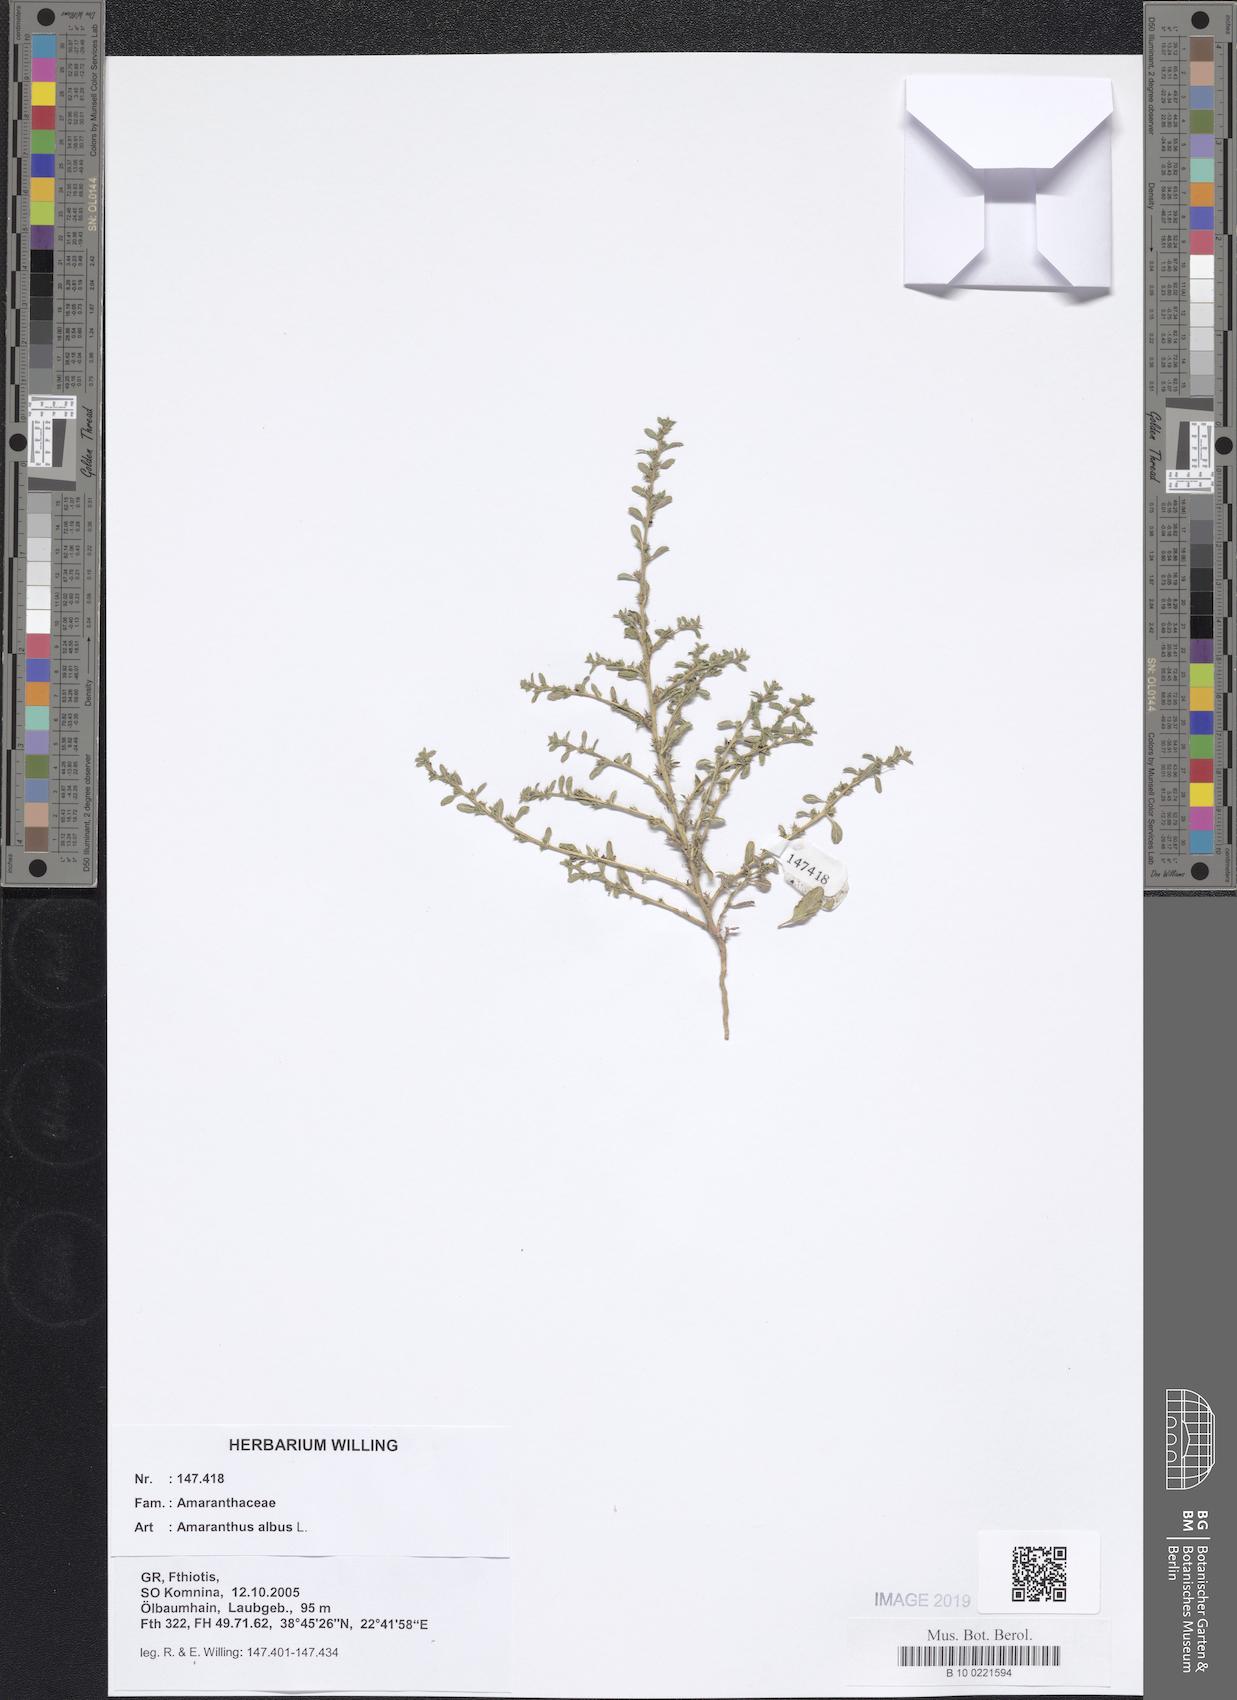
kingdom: Plantae
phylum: Tracheophyta
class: Magnoliopsida
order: Caryophyllales
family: Amaranthaceae
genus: Amaranthus
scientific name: Amaranthus albus
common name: White pigweed
